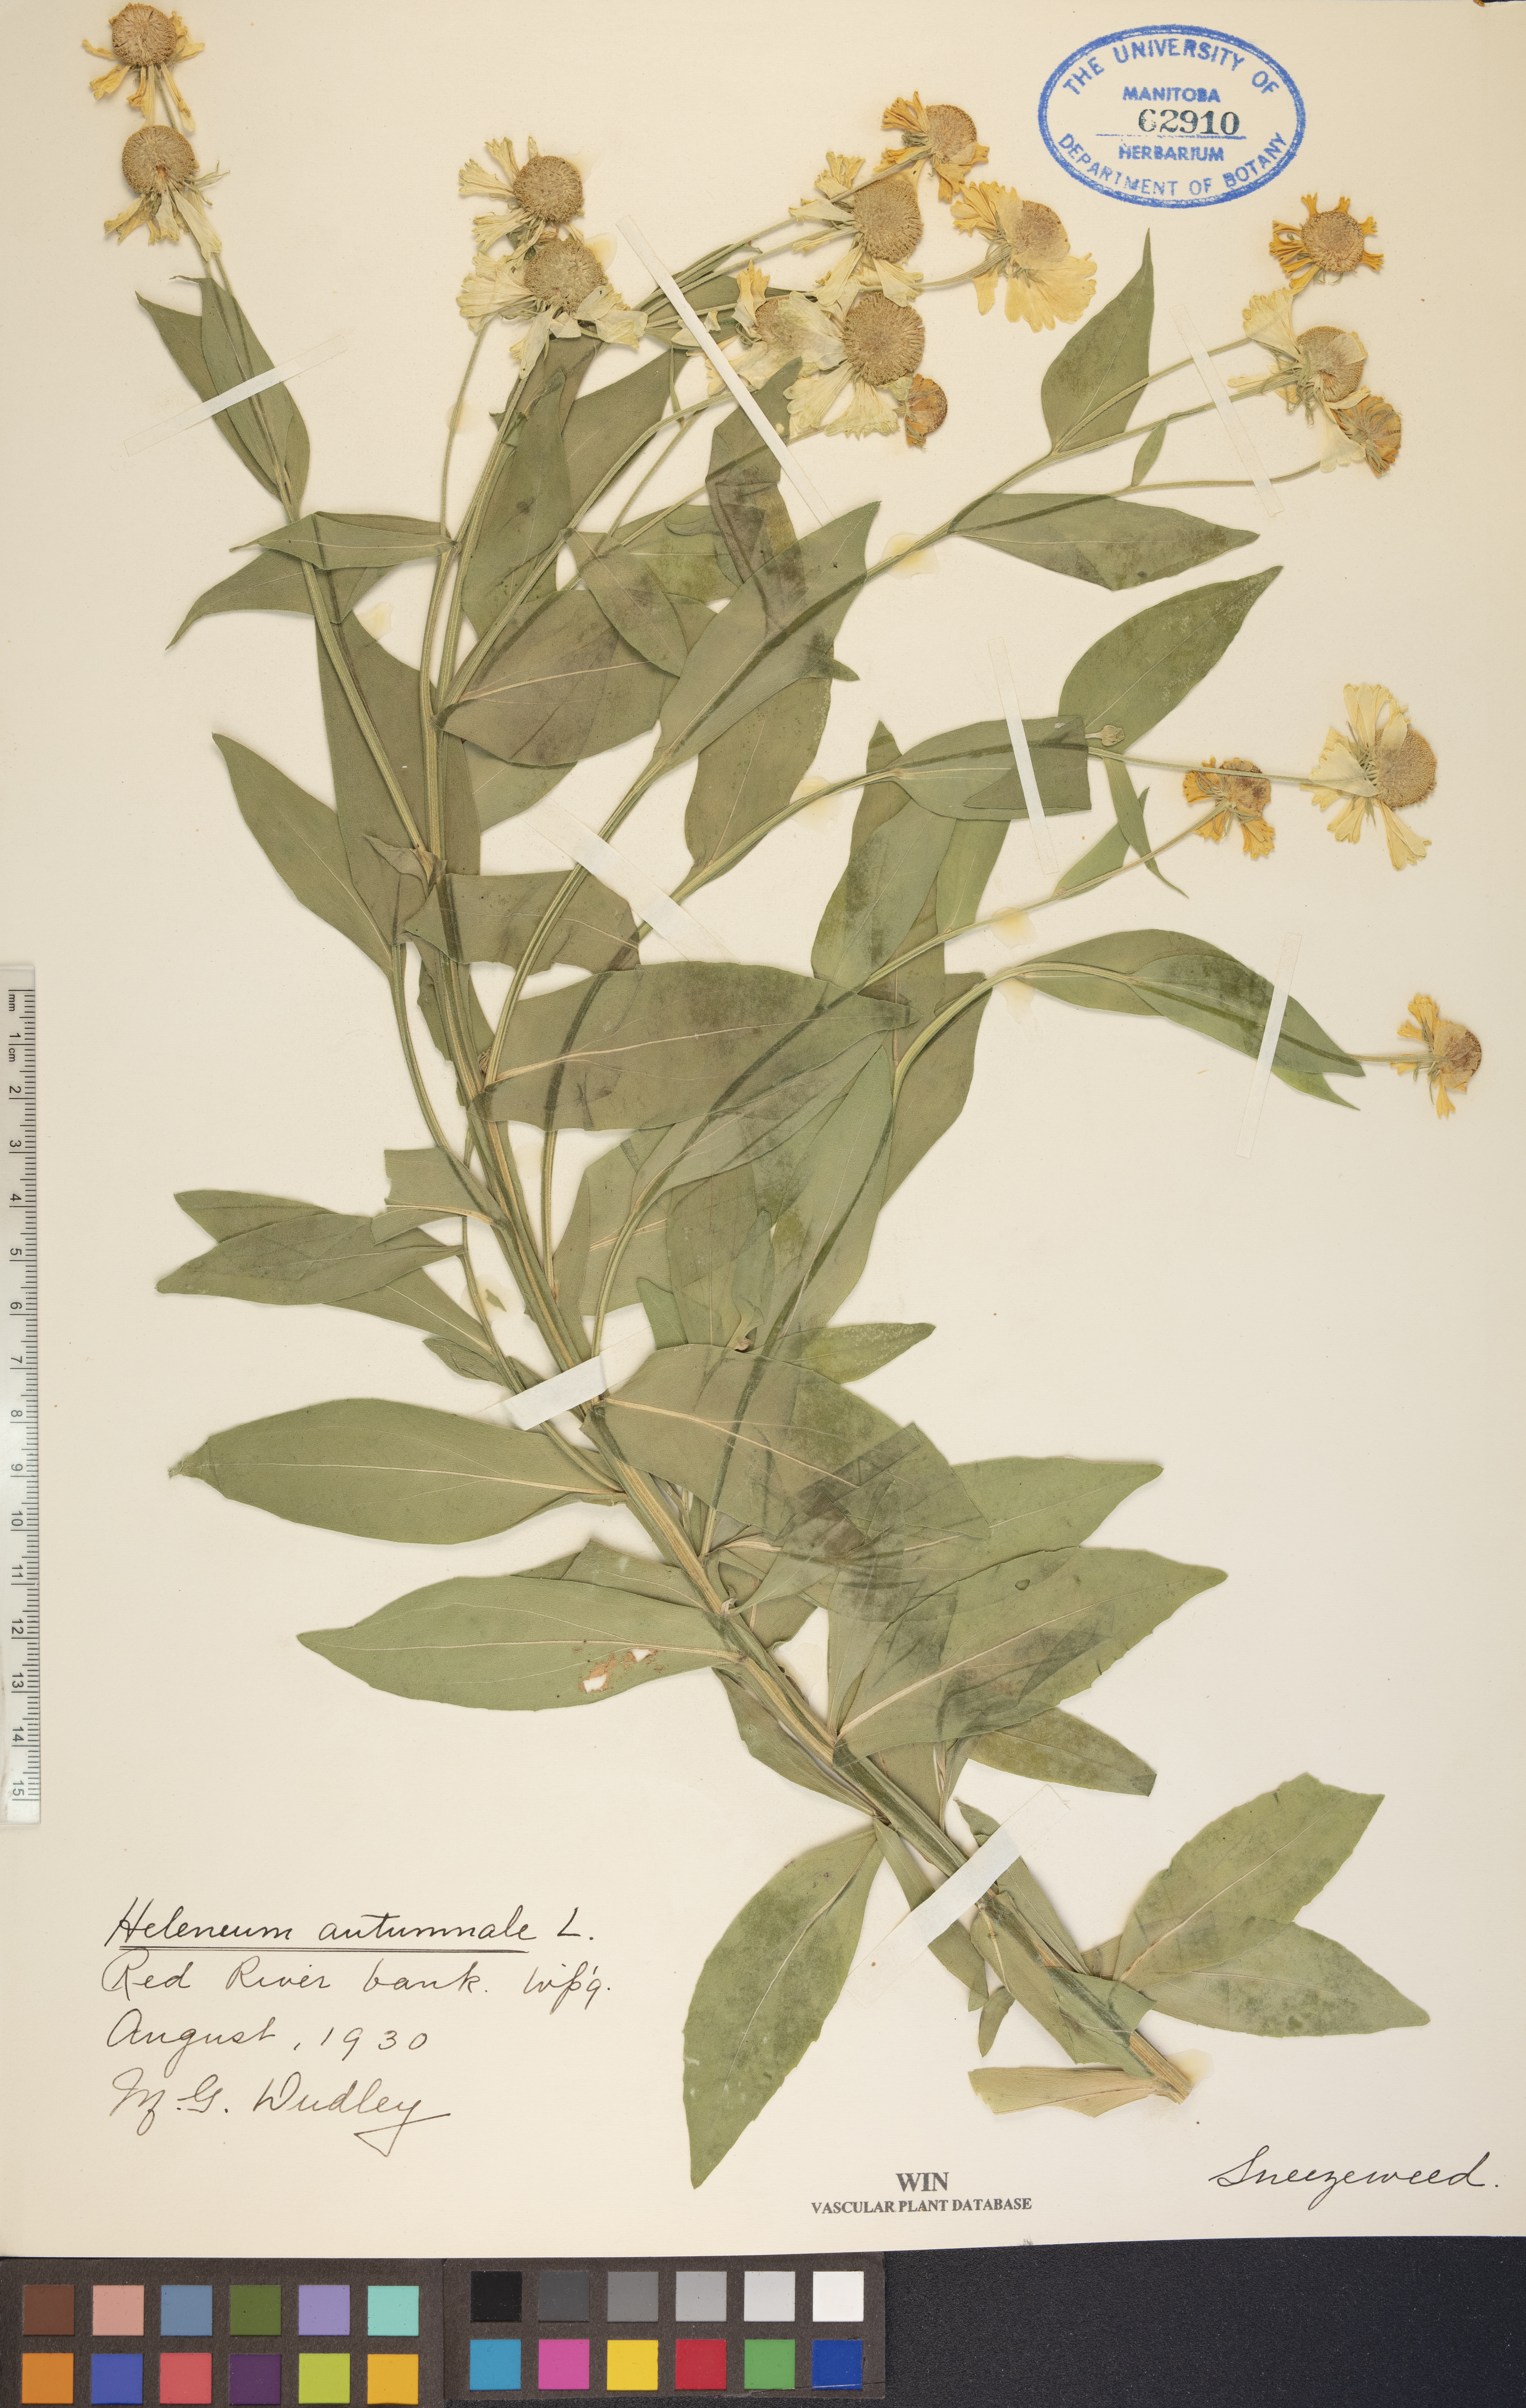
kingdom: Plantae
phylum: Tracheophyta
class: Magnoliopsida
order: Asterales
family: Asteraceae
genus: Helenium
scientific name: Helenium autumnale
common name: Sneezeweed
